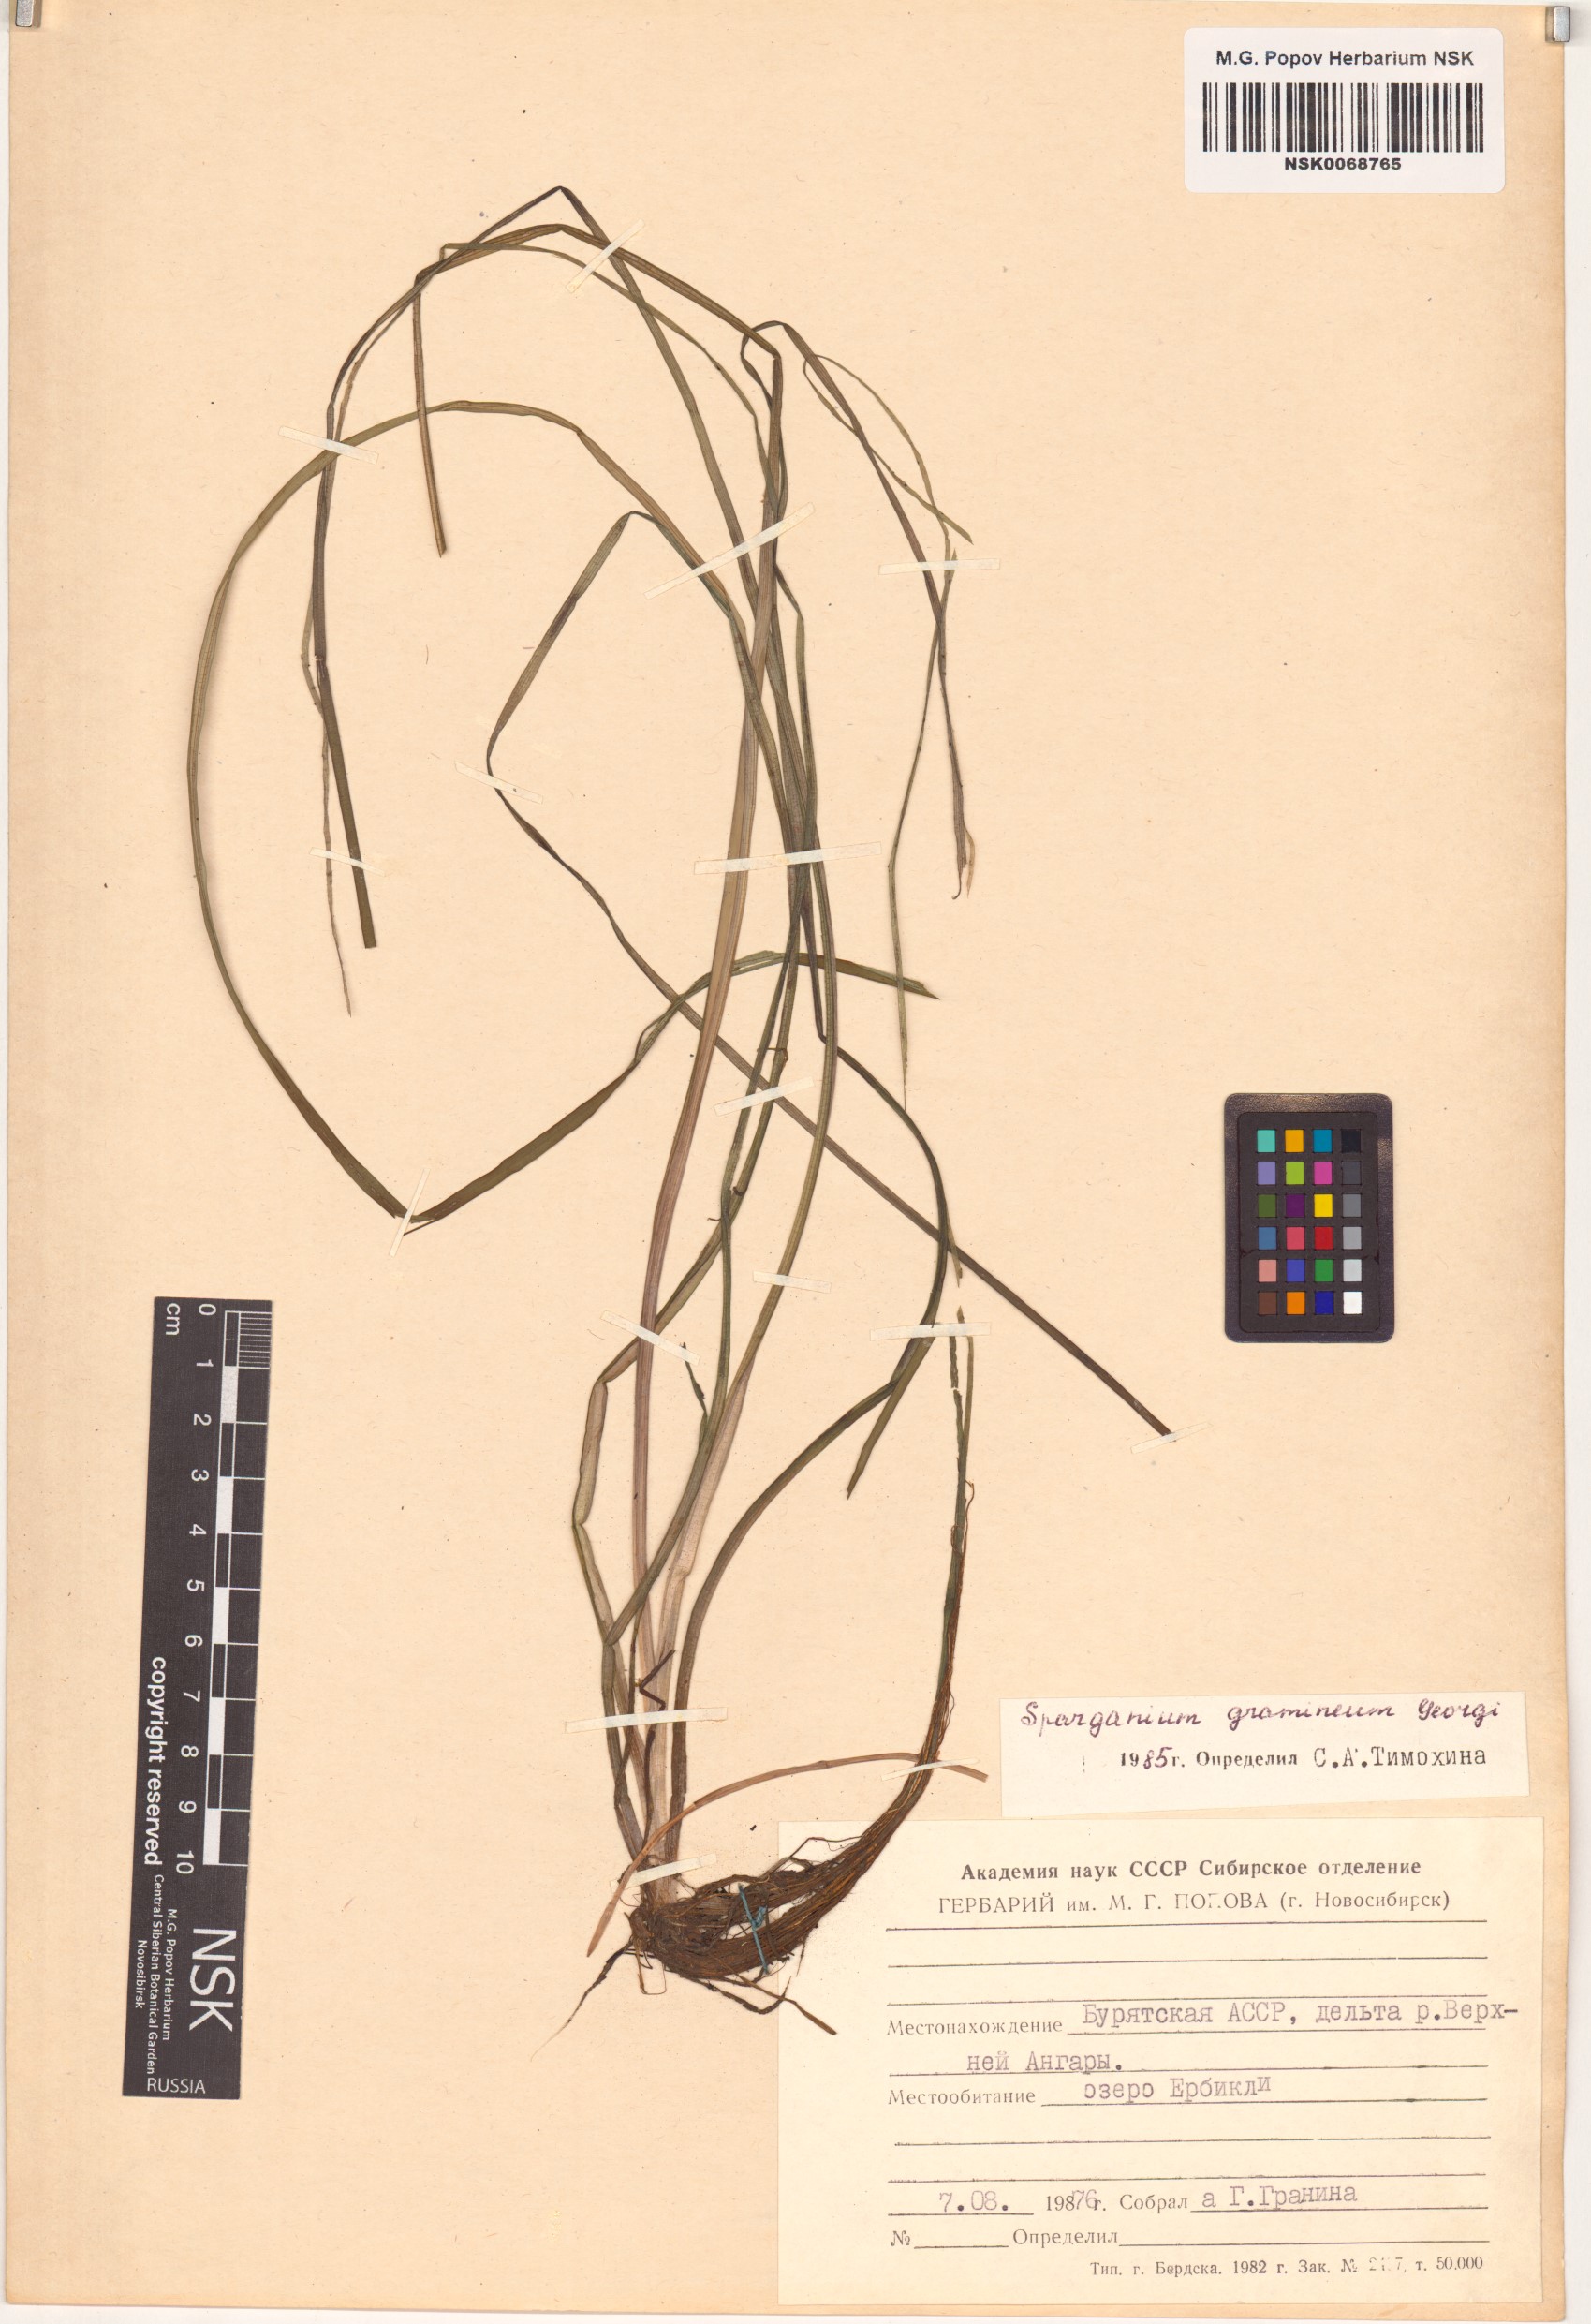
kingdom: Plantae
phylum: Tracheophyta
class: Liliopsida
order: Poales
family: Typhaceae
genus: Sparganium
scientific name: Sparganium gramineum
